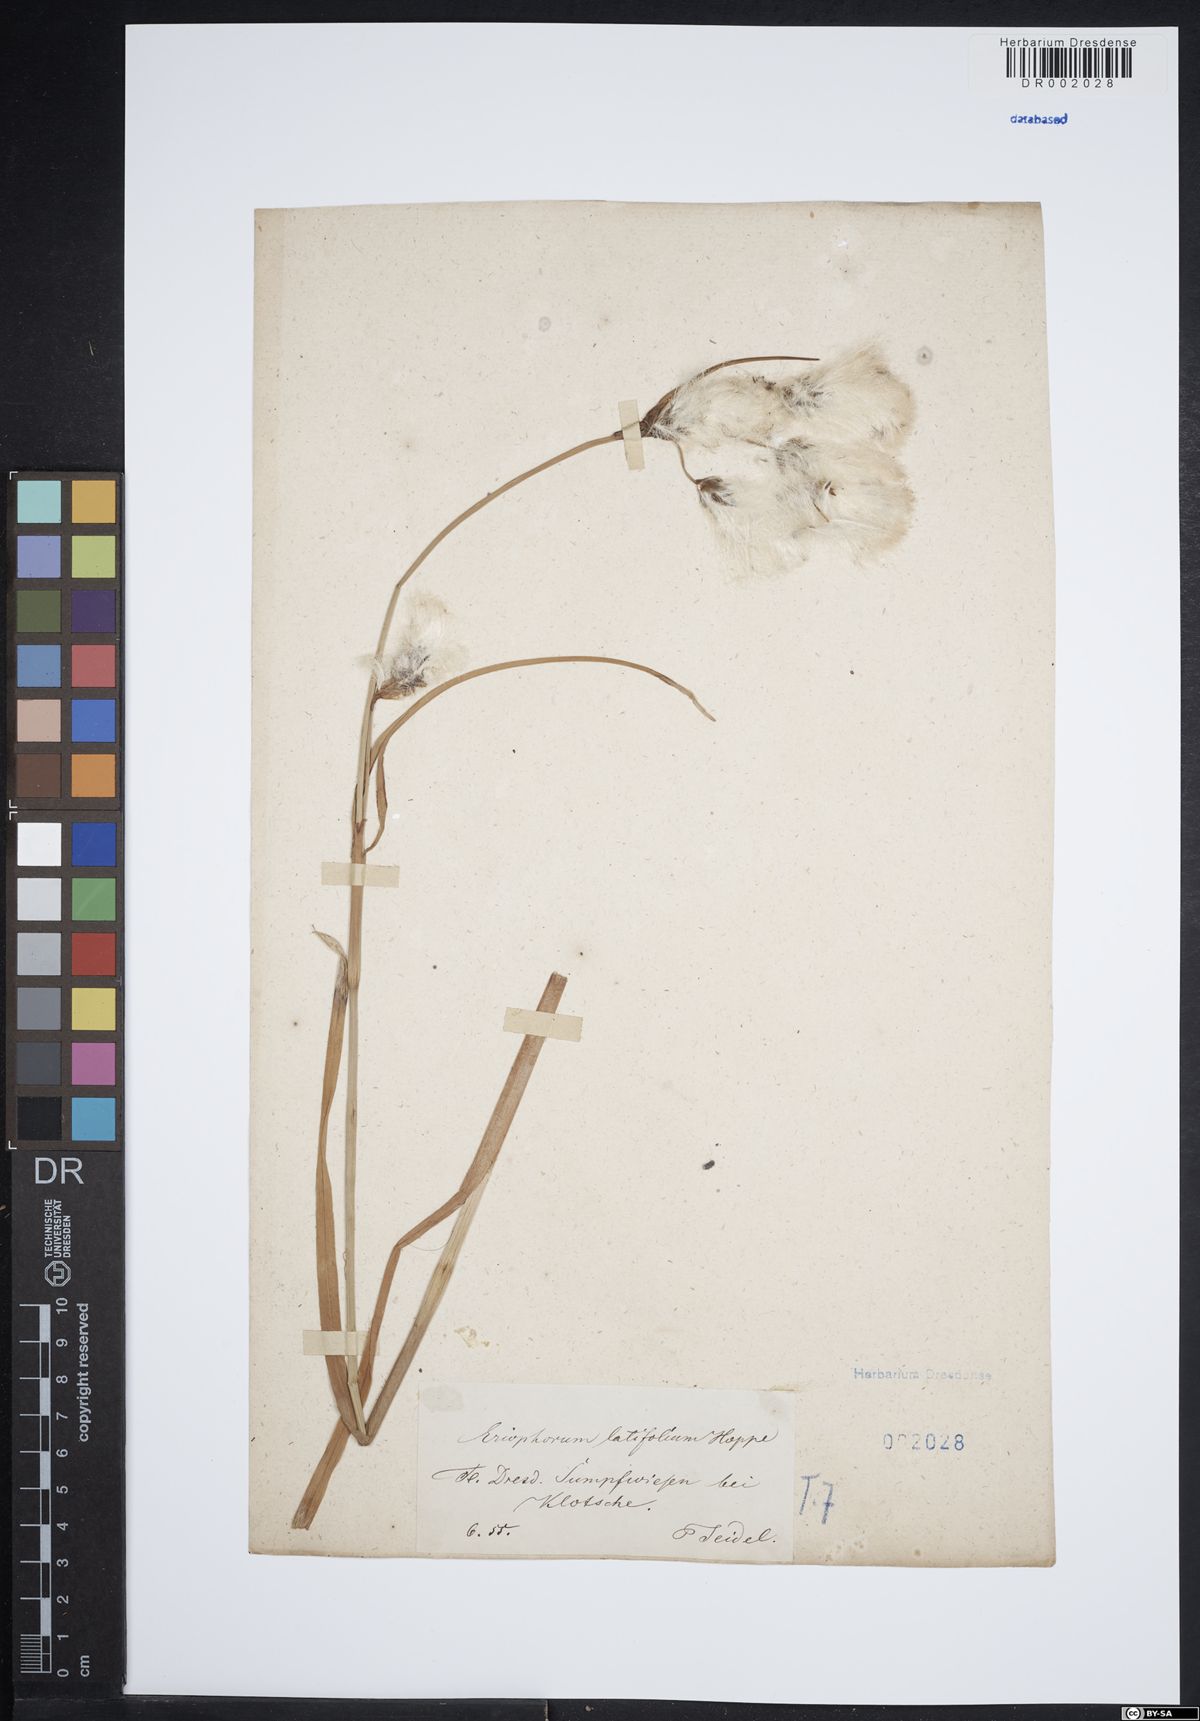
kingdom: Plantae
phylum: Tracheophyta
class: Liliopsida
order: Poales
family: Cyperaceae
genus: Eriophorum
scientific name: Eriophorum latifolium
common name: Broad-leaved cottongrass
